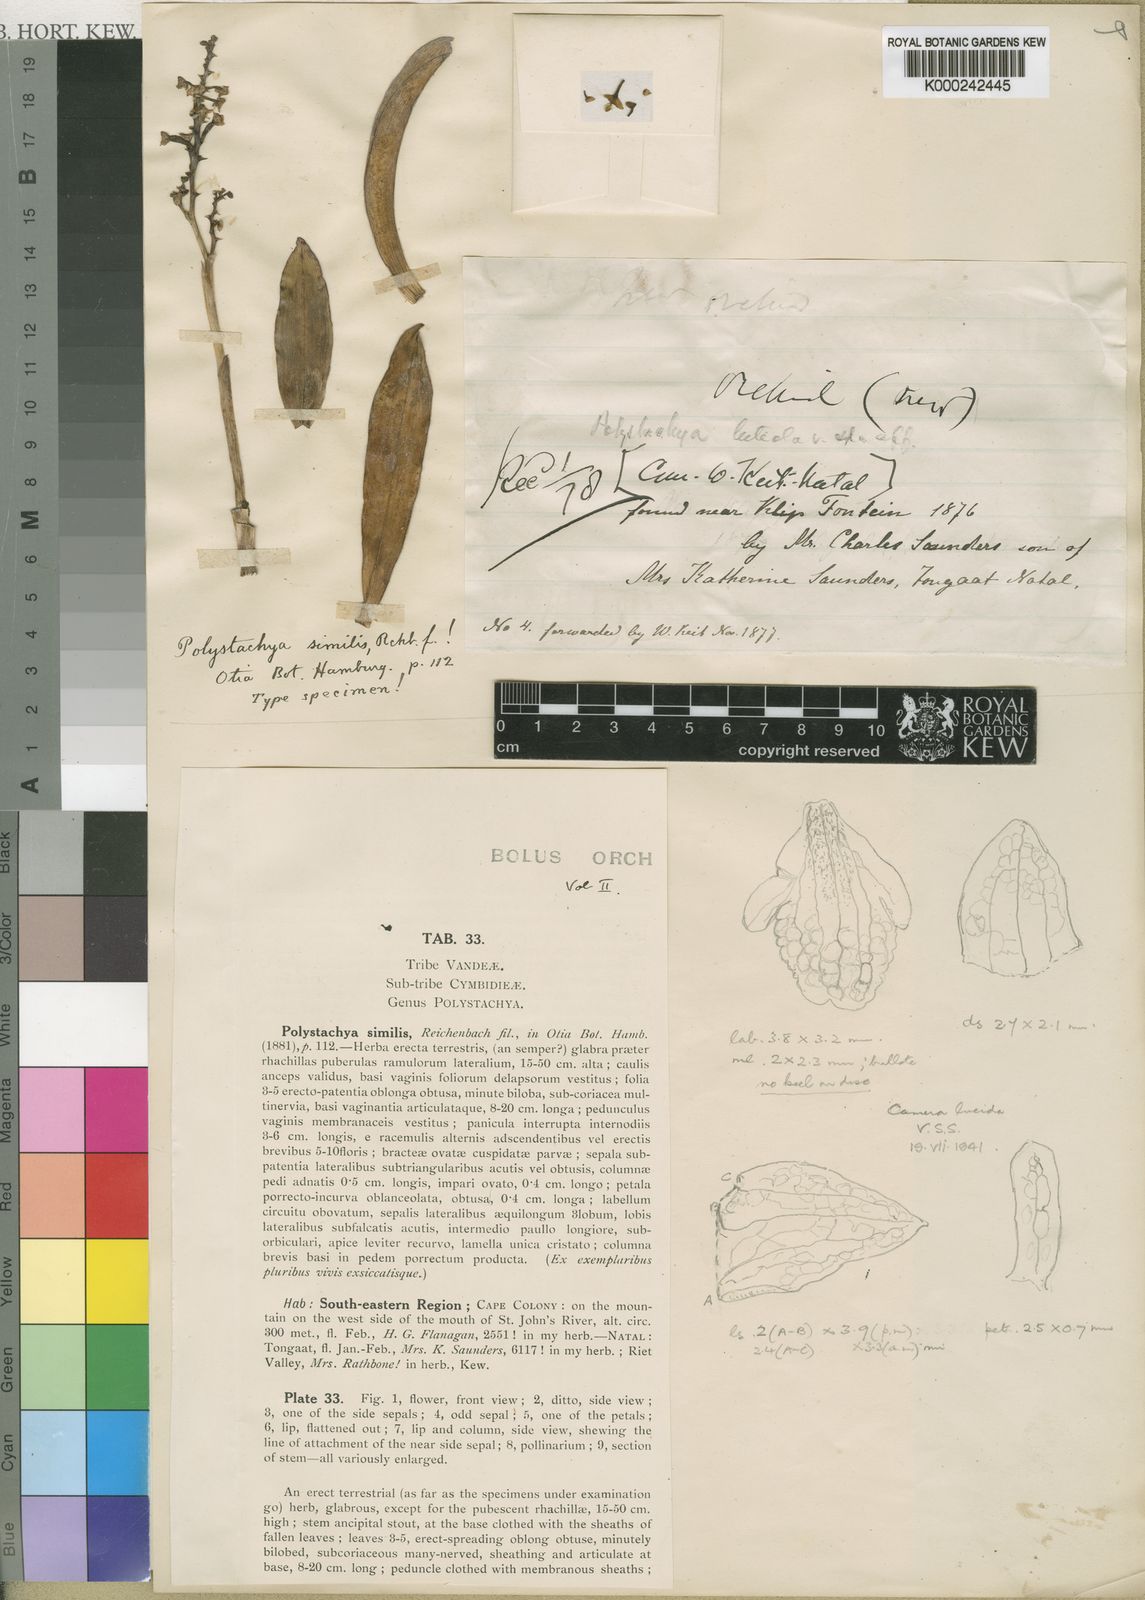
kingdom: Plantae
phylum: Tracheophyta
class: Liliopsida
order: Asparagales
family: Orchidaceae
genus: Polystachya
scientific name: Polystachya modesta
